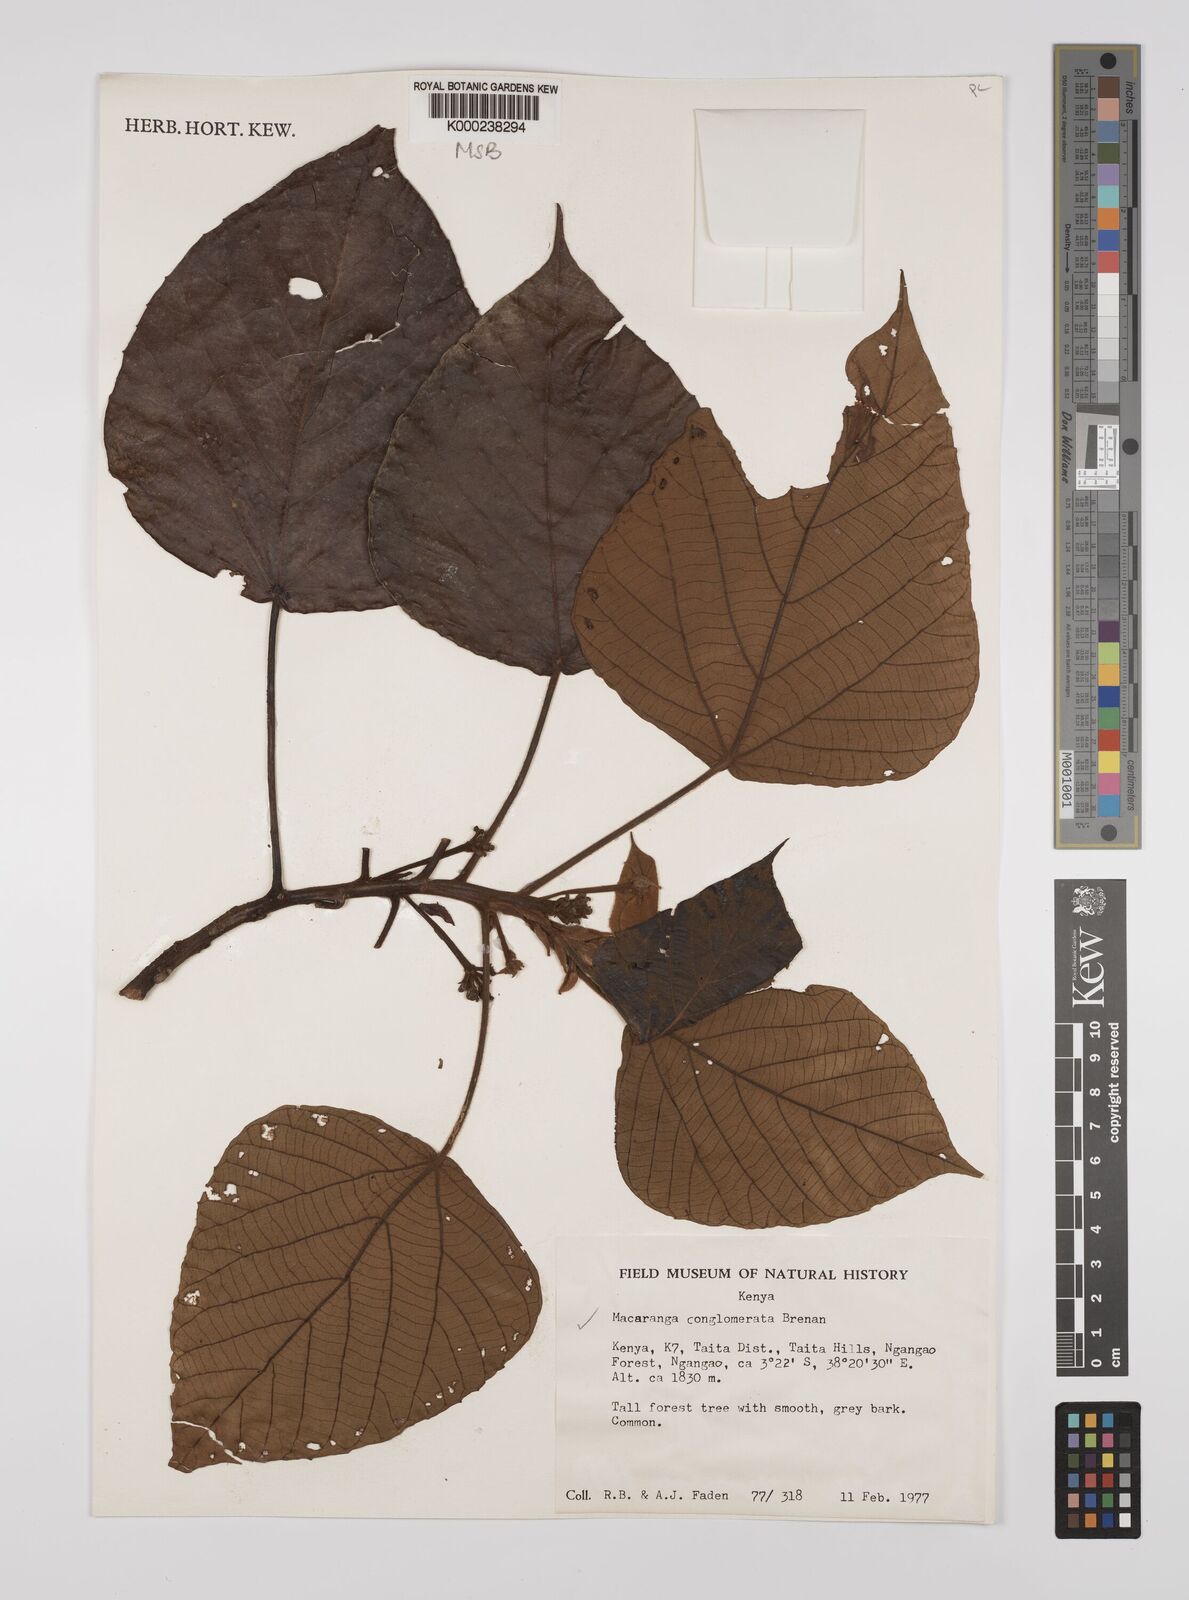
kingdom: Plantae
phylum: Tracheophyta
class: Magnoliopsida
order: Malpighiales
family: Euphorbiaceae
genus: Macaranga
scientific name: Macaranga conglomerata
